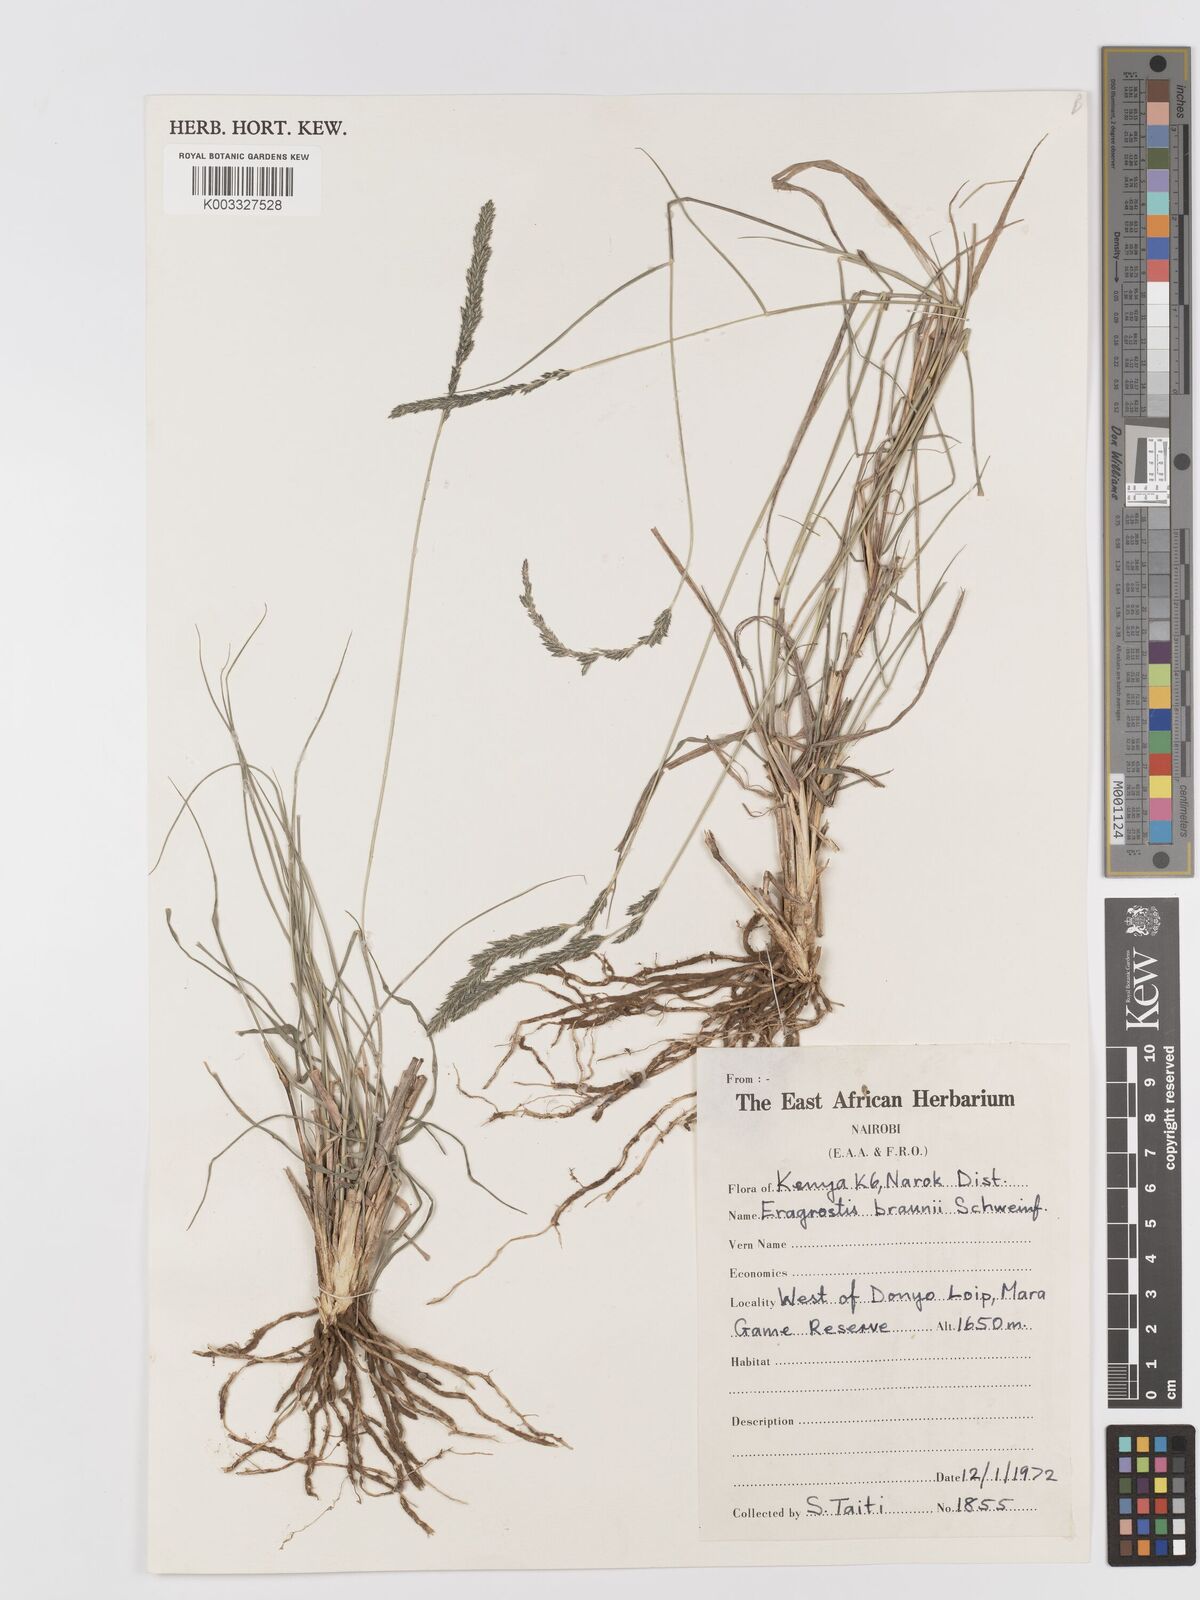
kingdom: Plantae
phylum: Tracheophyta
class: Liliopsida
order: Poales
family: Poaceae
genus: Eragrostis
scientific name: Eragrostis braunii
